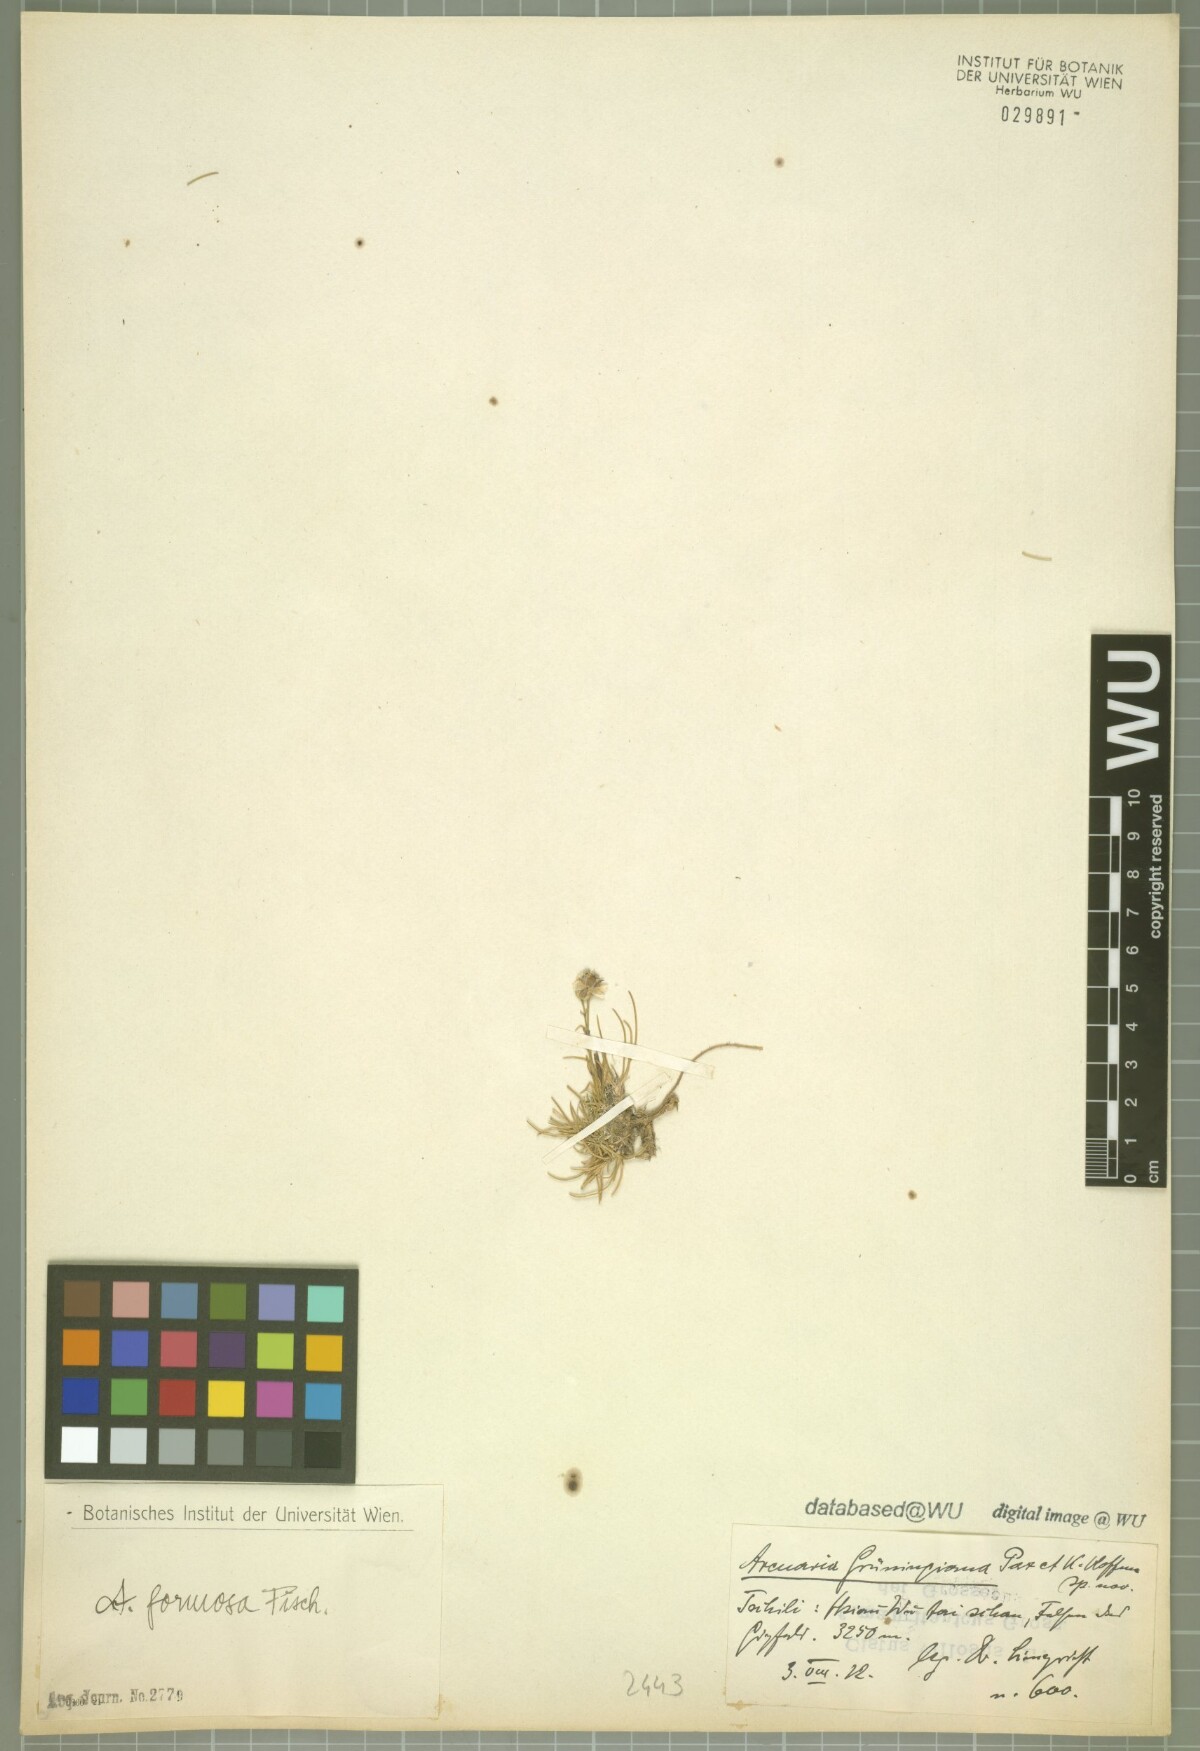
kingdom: Plantae
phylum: Tracheophyta
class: Magnoliopsida
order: Caryophyllales
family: Caryophyllaceae
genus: Eremogone
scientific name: Eremogone grueningiana
